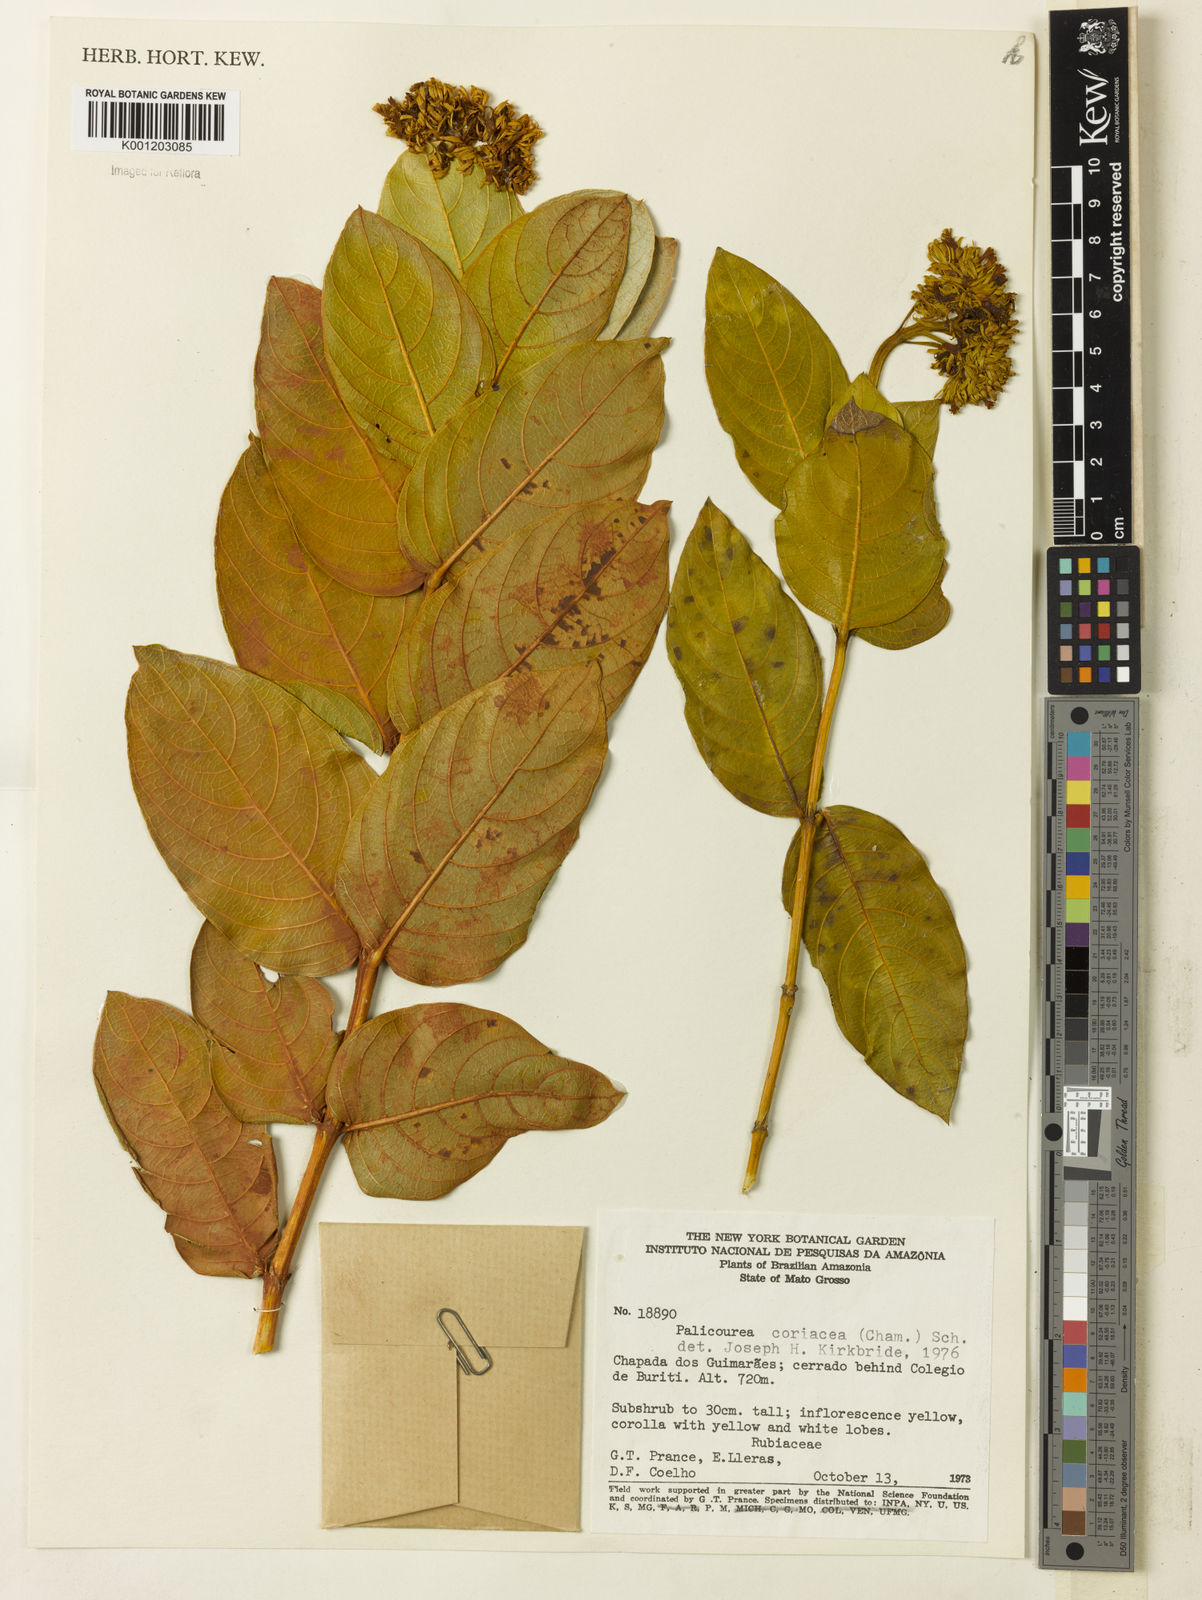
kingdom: Plantae
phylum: Tracheophyta
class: Magnoliopsida
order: Gentianales
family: Rubiaceae
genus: Palicourea
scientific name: Palicourea coriacea
